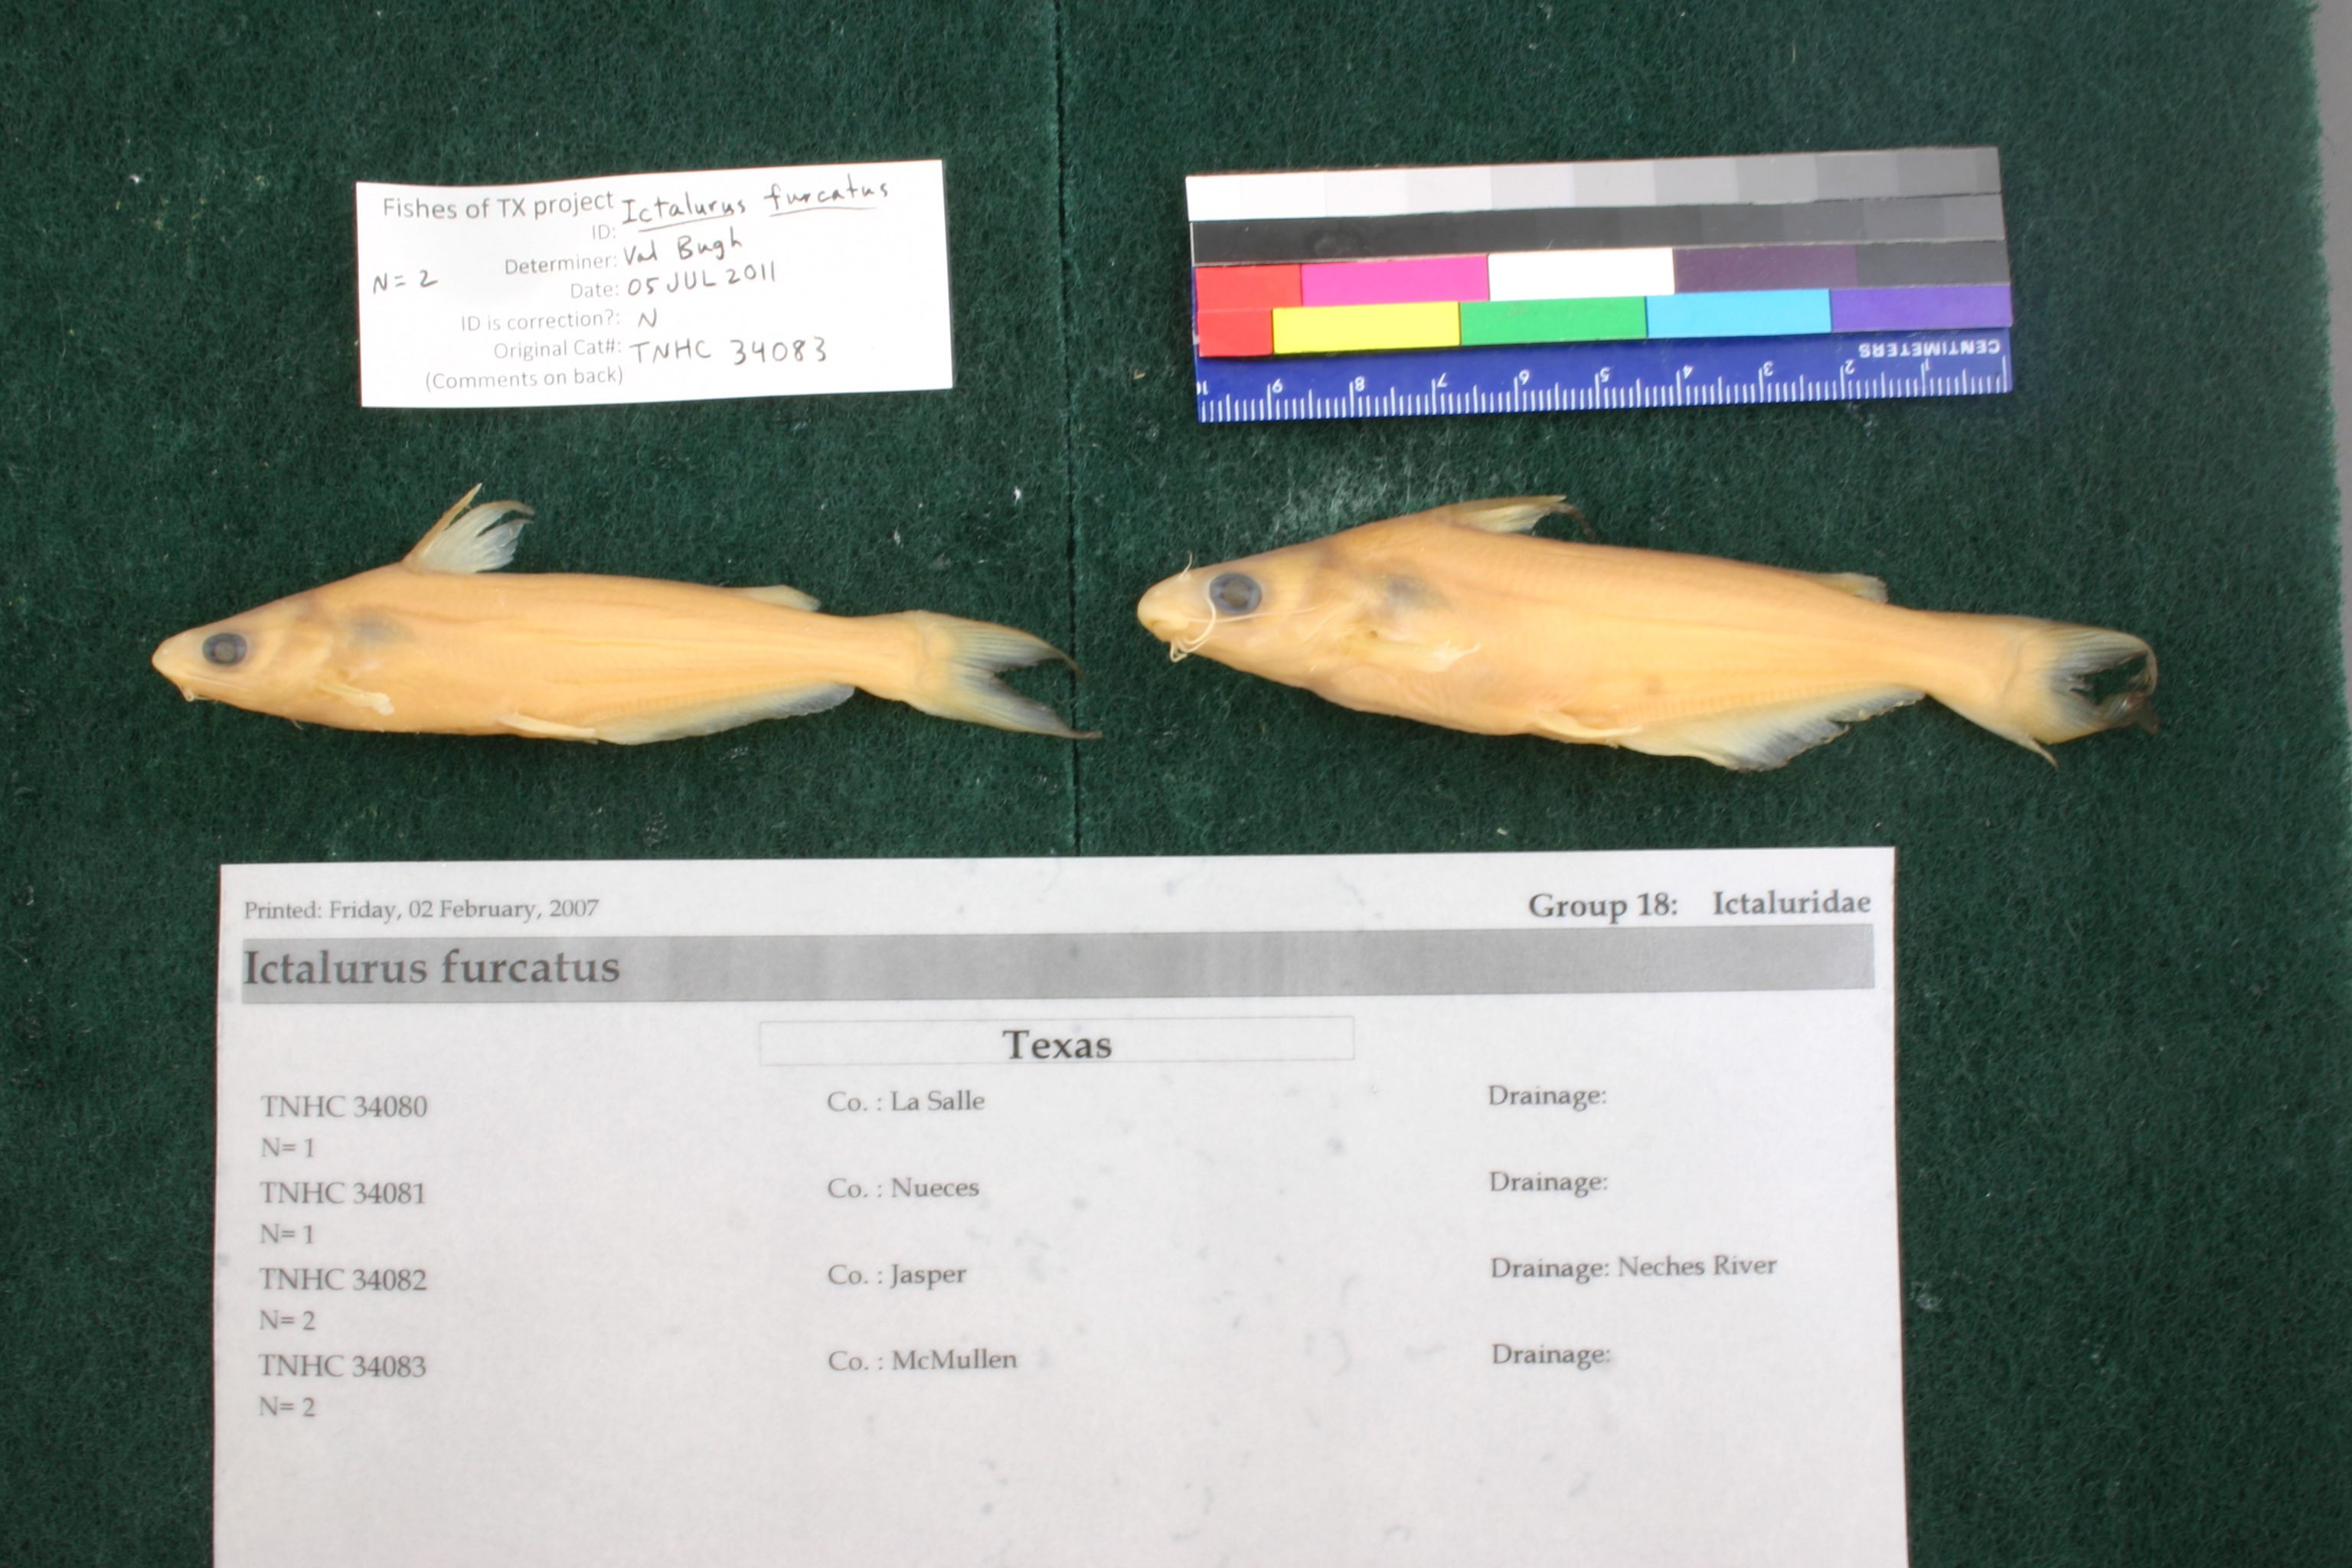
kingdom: Animalia
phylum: Chordata
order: Siluriformes
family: Ictaluridae
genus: Ictalurus
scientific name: Ictalurus furcatus
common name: Blue catfish
